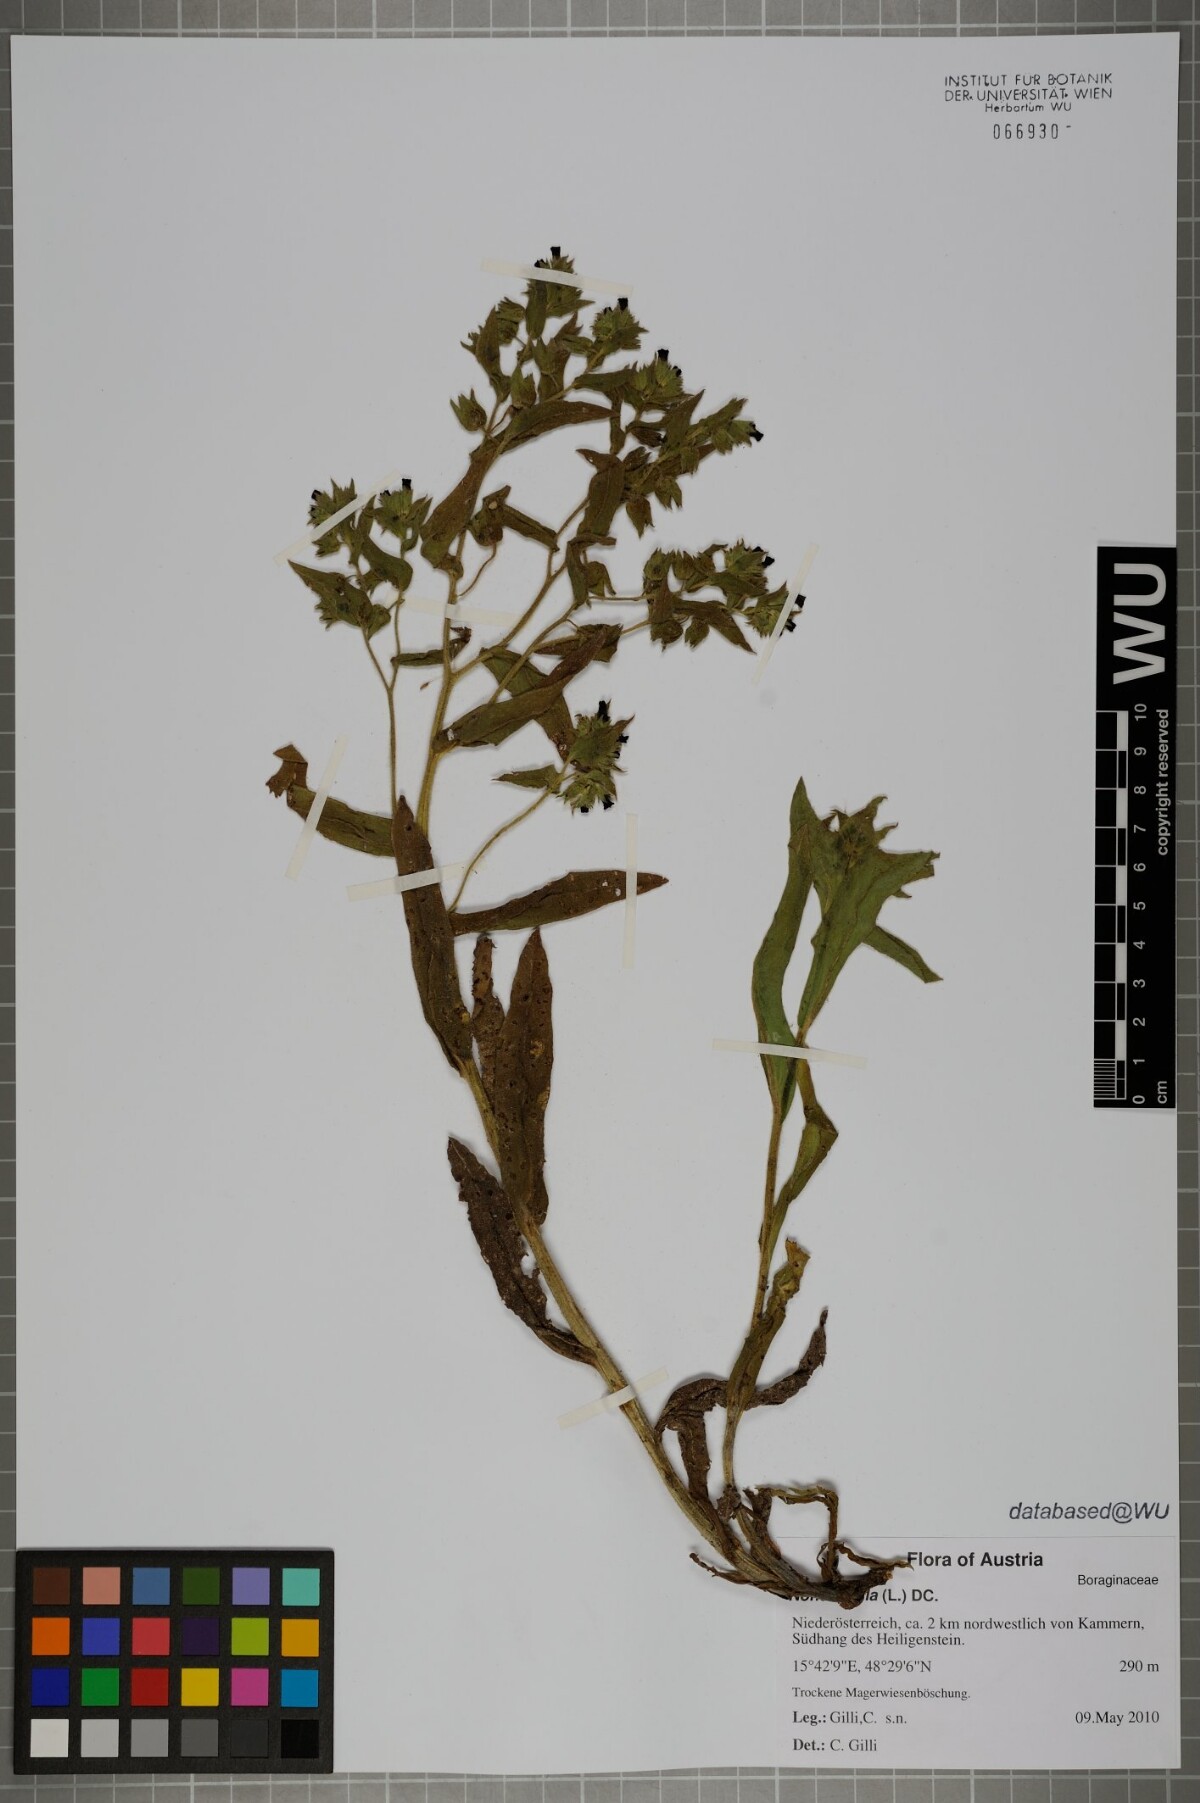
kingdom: Plantae
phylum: Tracheophyta
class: Magnoliopsida
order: Boraginales
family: Boraginaceae
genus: Nonea
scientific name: Nonea pulla
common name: Brown nonea
